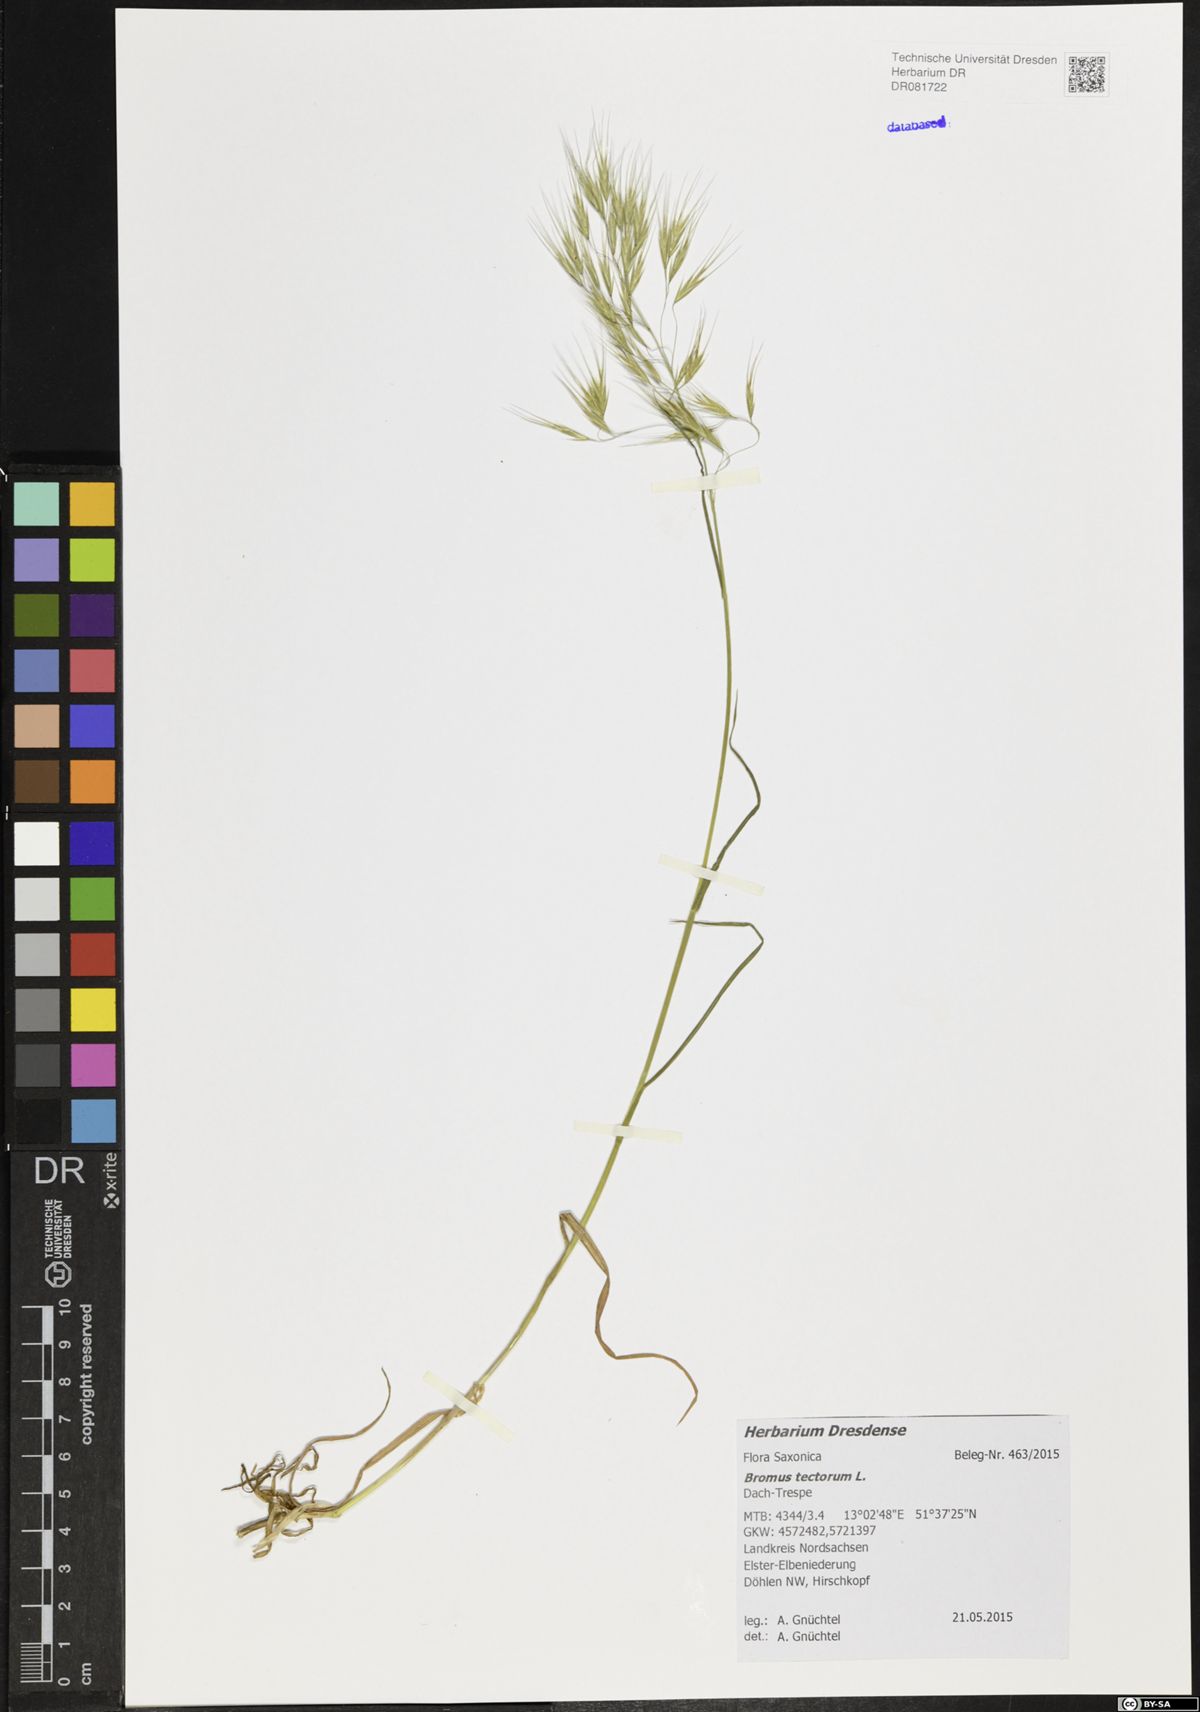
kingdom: Plantae
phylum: Tracheophyta
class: Liliopsida
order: Poales
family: Poaceae
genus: Bromus
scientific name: Bromus tectorum
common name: Cheatgrass
